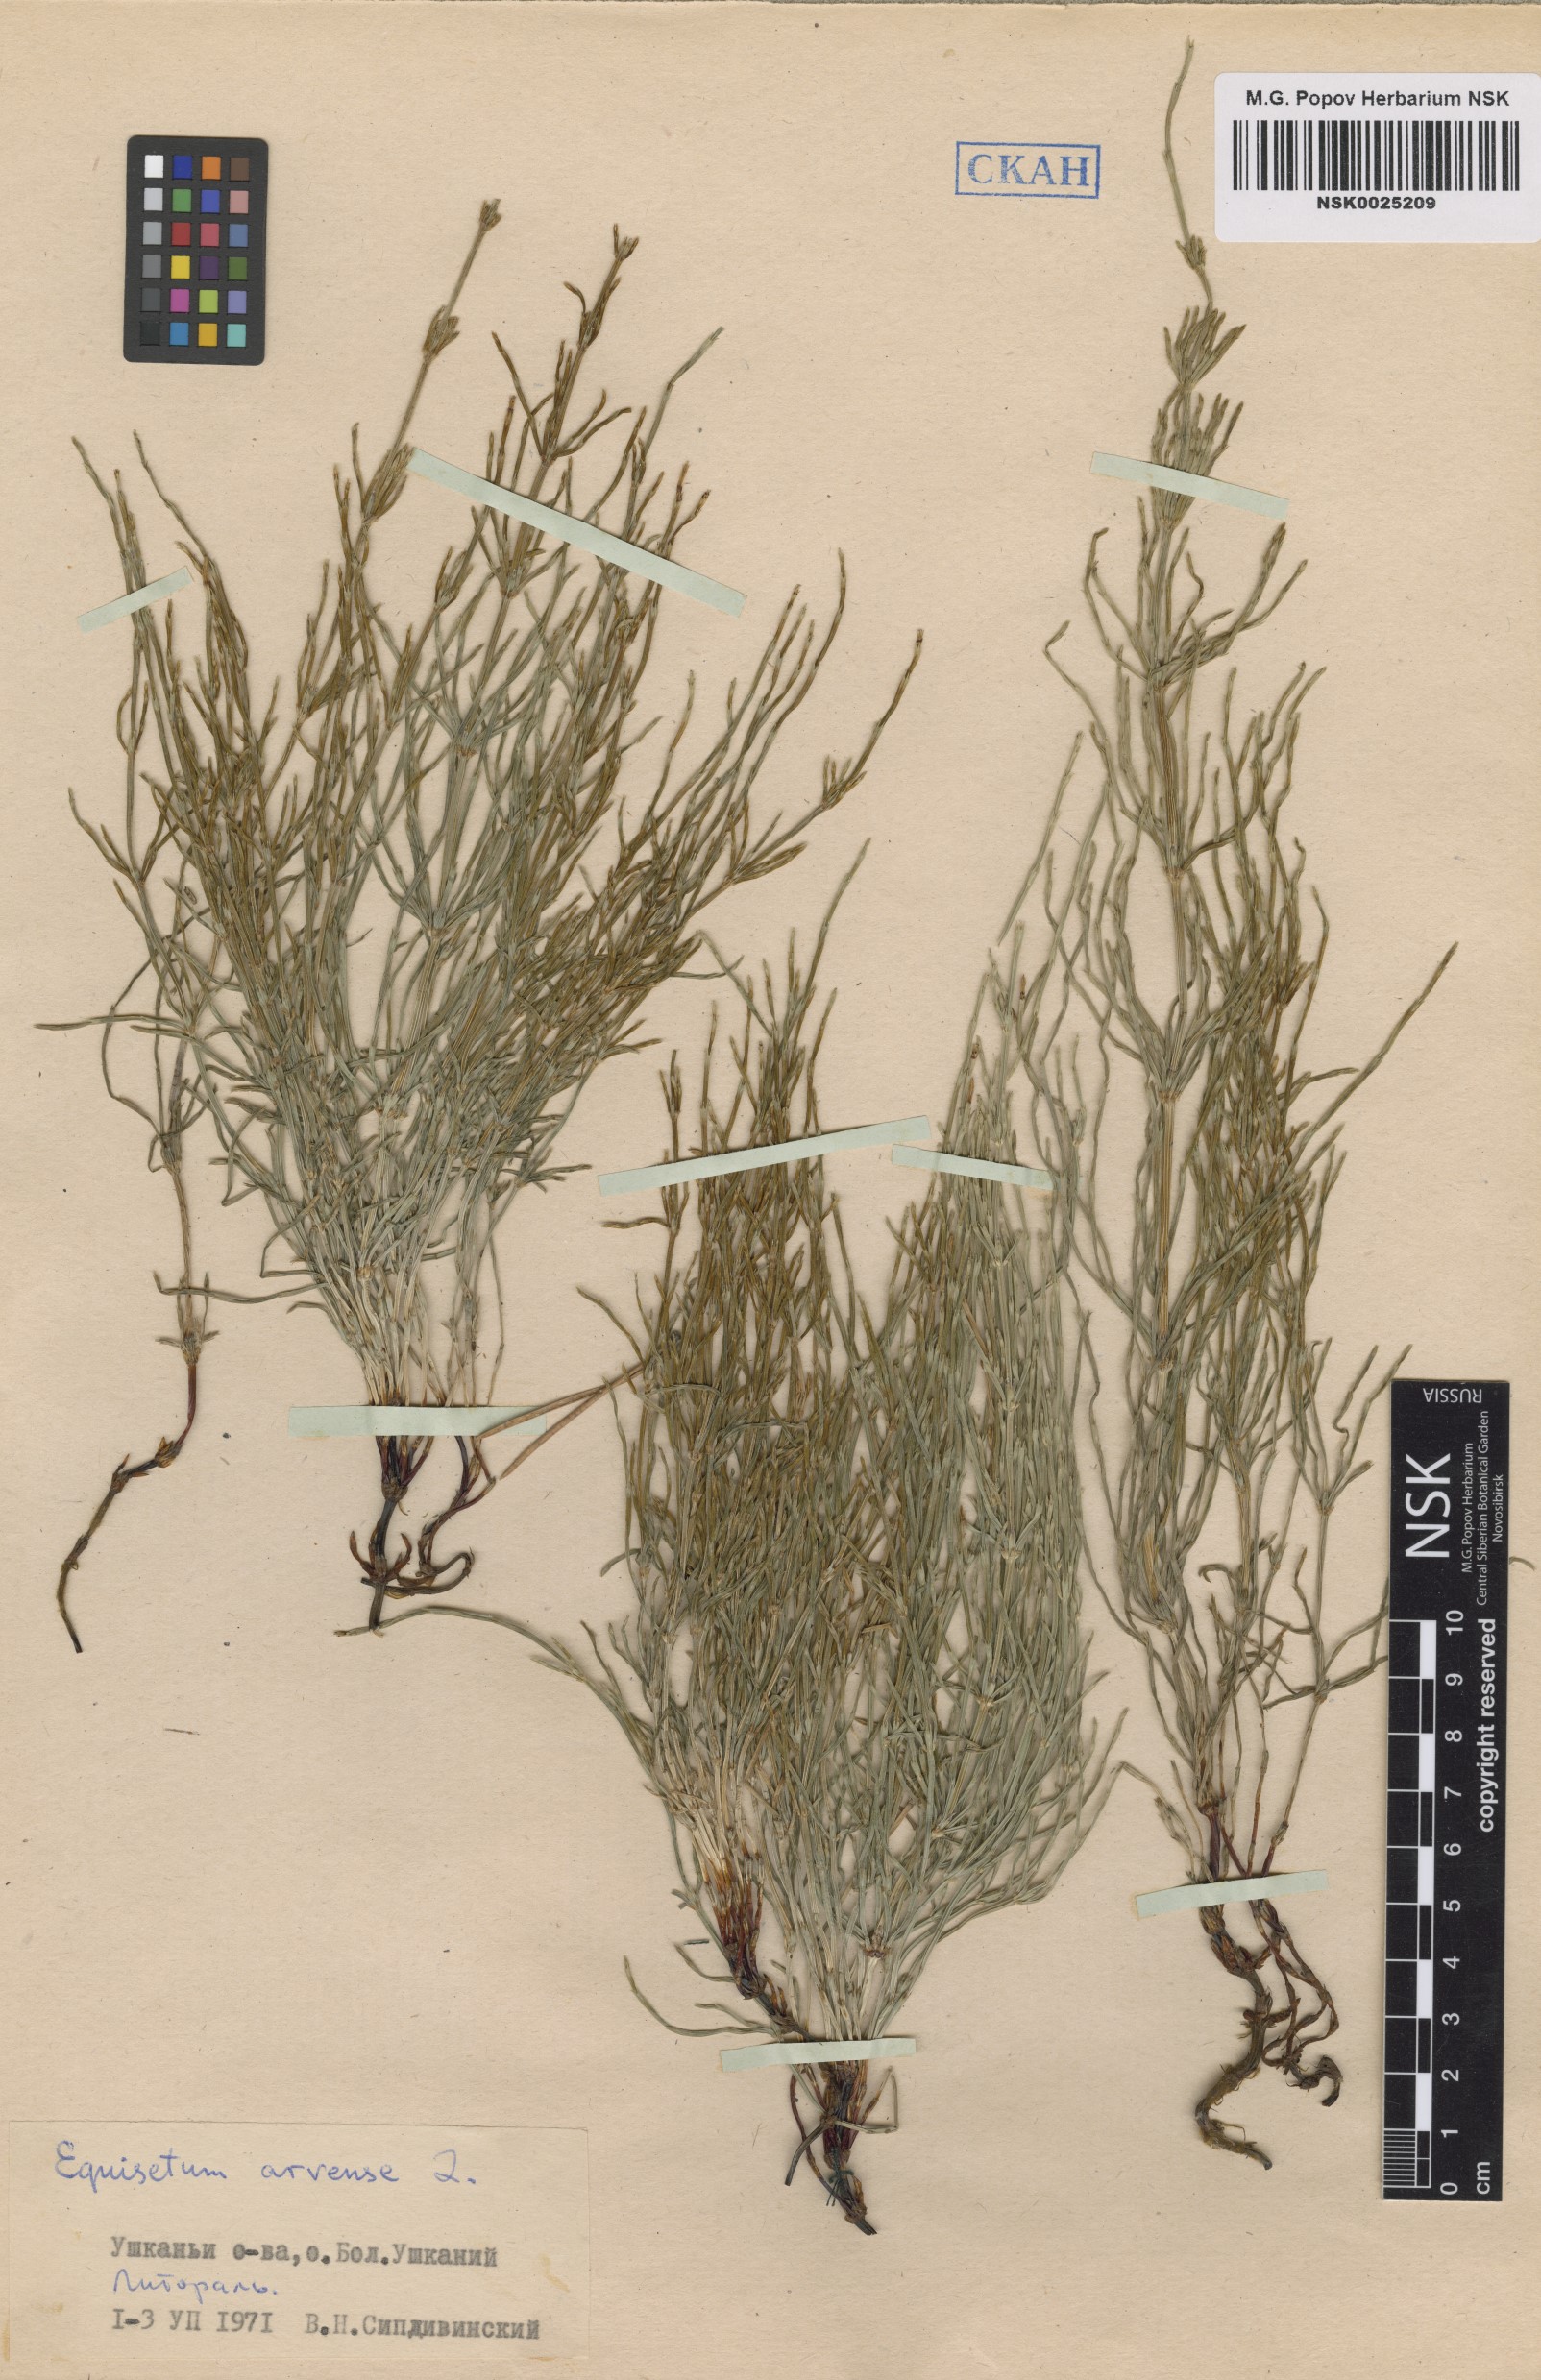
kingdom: Plantae
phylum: Tracheophyta
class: Polypodiopsida
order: Equisetales
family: Equisetaceae
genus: Equisetum
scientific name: Equisetum arvense
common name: Field horsetail
